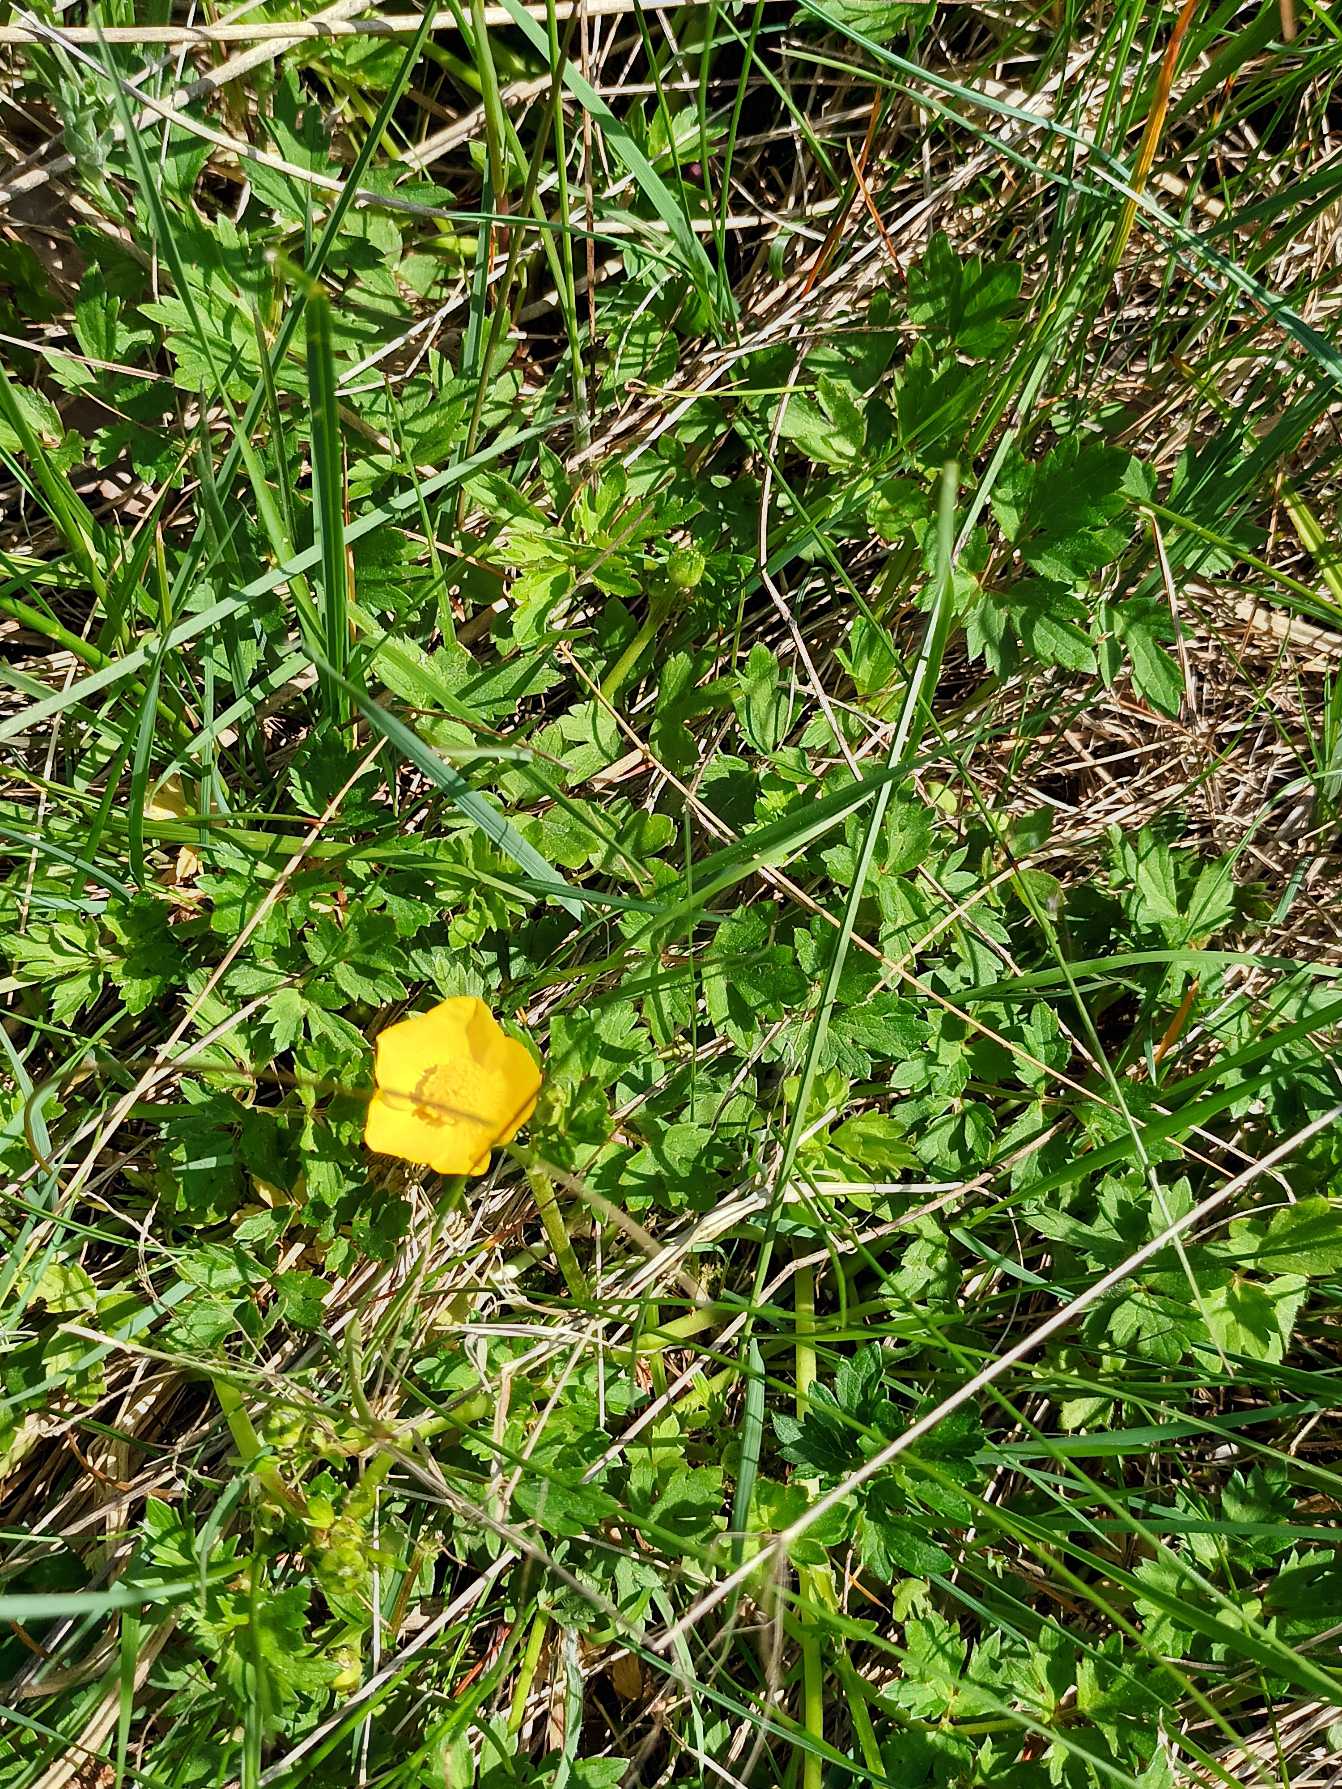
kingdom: Plantae
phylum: Tracheophyta
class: Magnoliopsida
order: Ranunculales
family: Ranunculaceae
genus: Ranunculus
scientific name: Ranunculus repens
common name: Lav ranunkel
